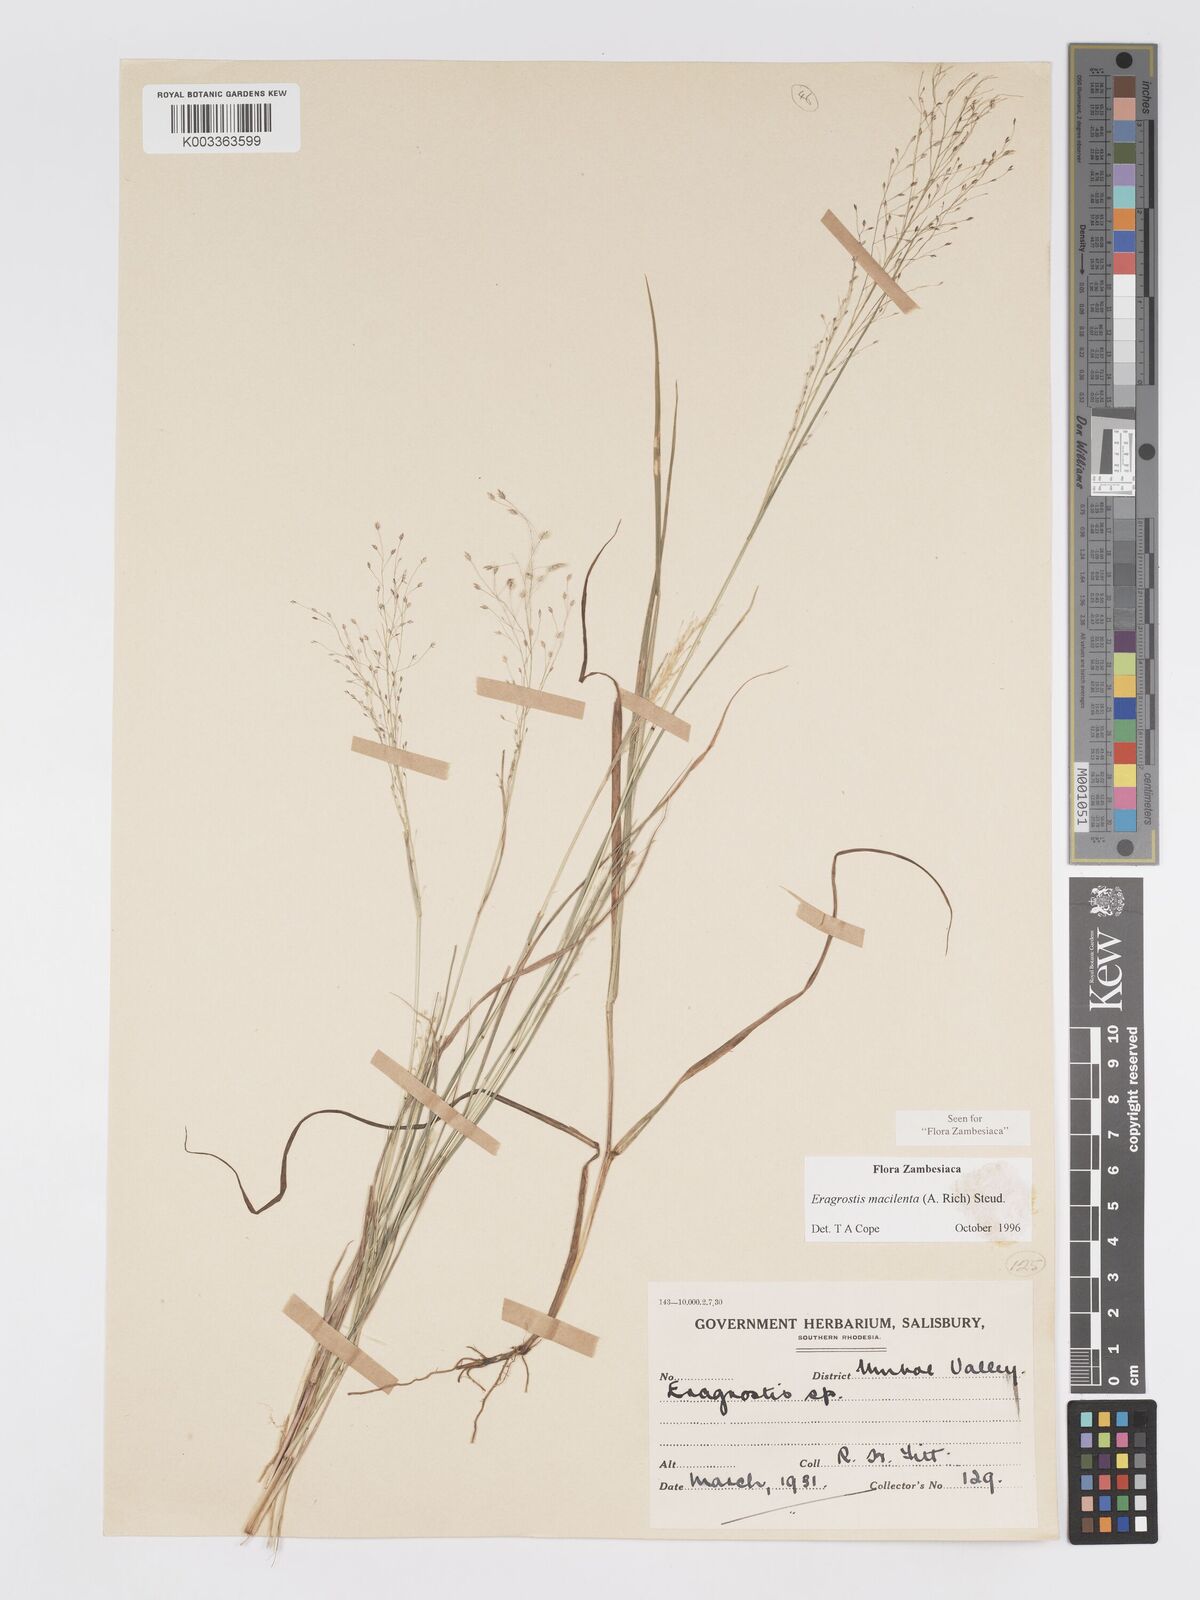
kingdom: Plantae
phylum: Tracheophyta
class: Liliopsida
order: Poales
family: Poaceae
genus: Eragrostis
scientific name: Eragrostis macilenta
